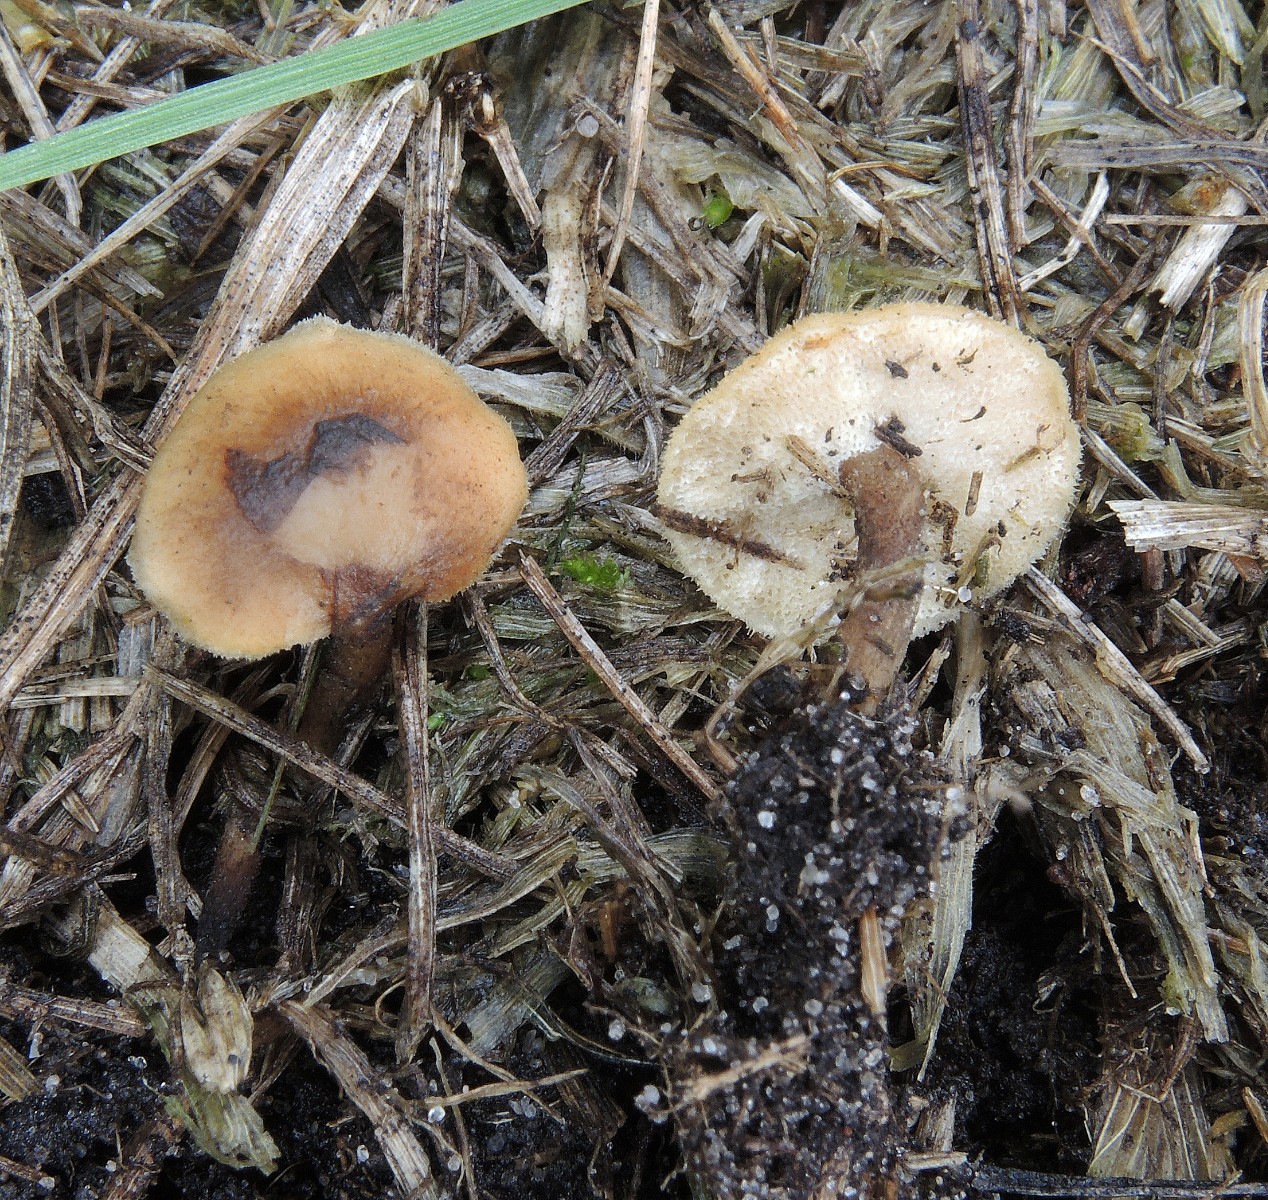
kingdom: Fungi
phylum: Basidiomycota
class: Agaricomycetes
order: Polyporales
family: Polyporaceae
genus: Lentinus
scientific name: Lentinus substrictus
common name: forårs-stilkporesvamp
